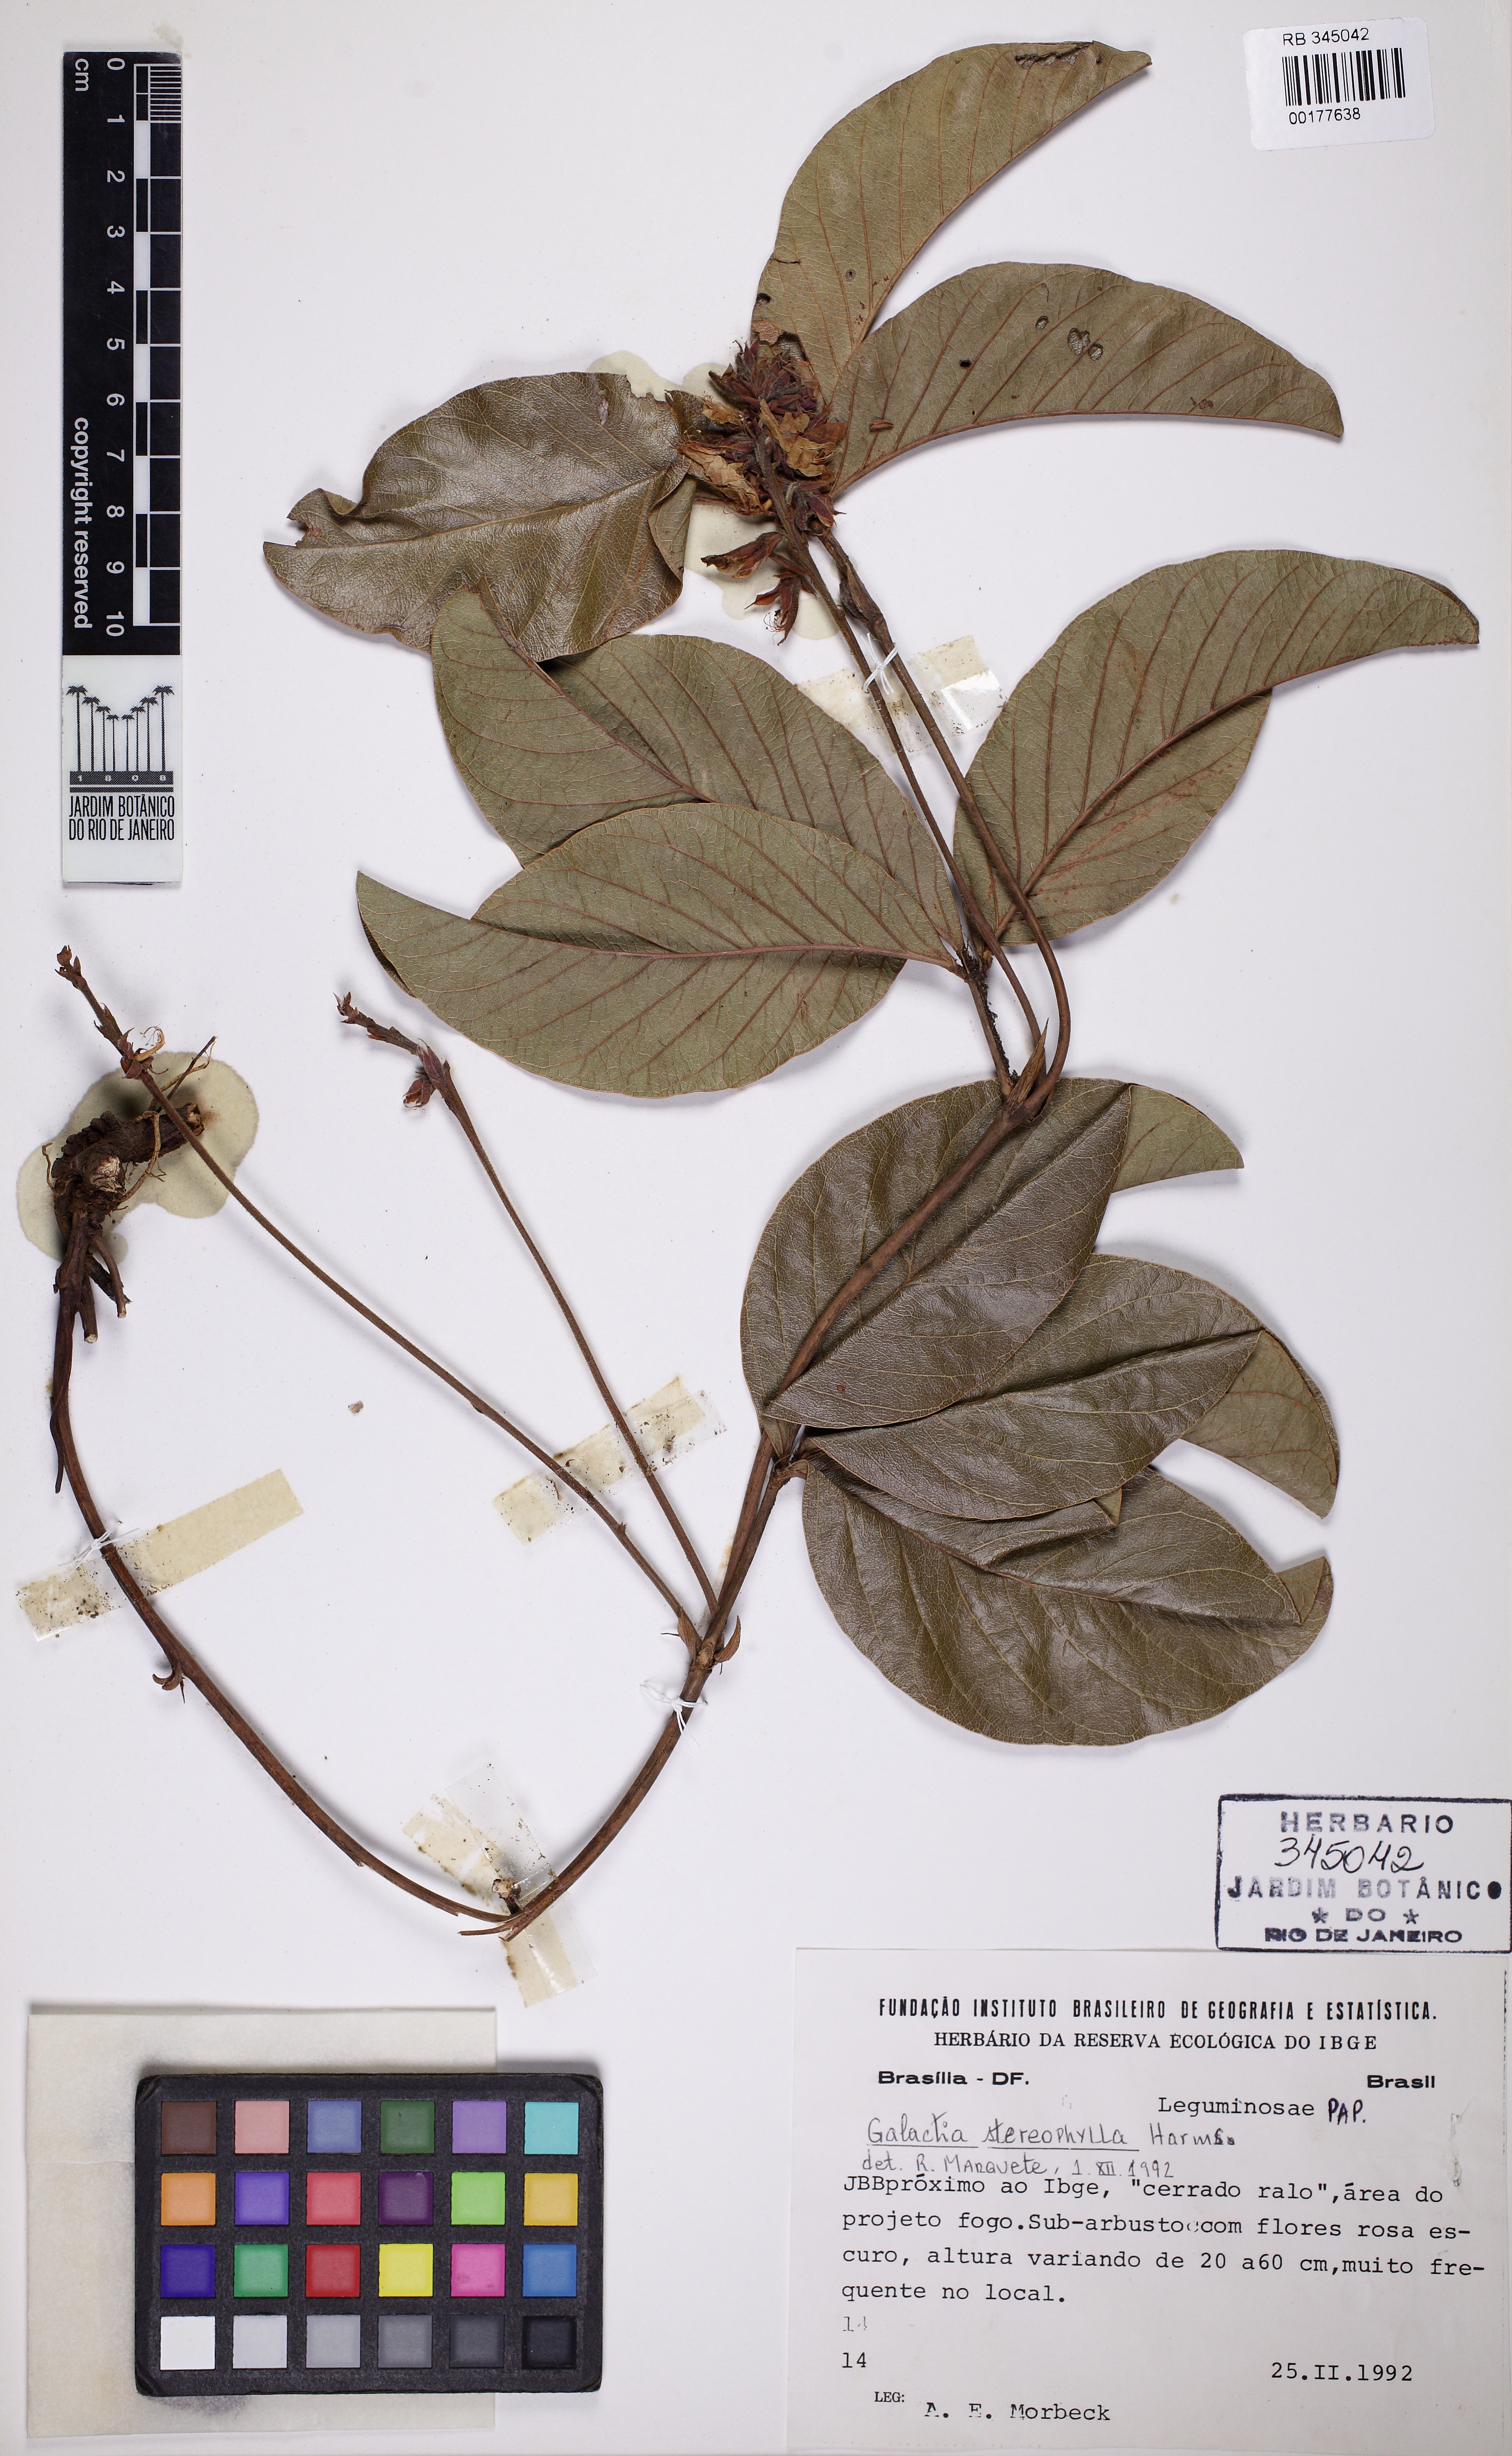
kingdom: Plantae
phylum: Tracheophyta
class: Magnoliopsida
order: Fabales
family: Fabaceae
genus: Betencourtia
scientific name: Betencourtia stereophylla
